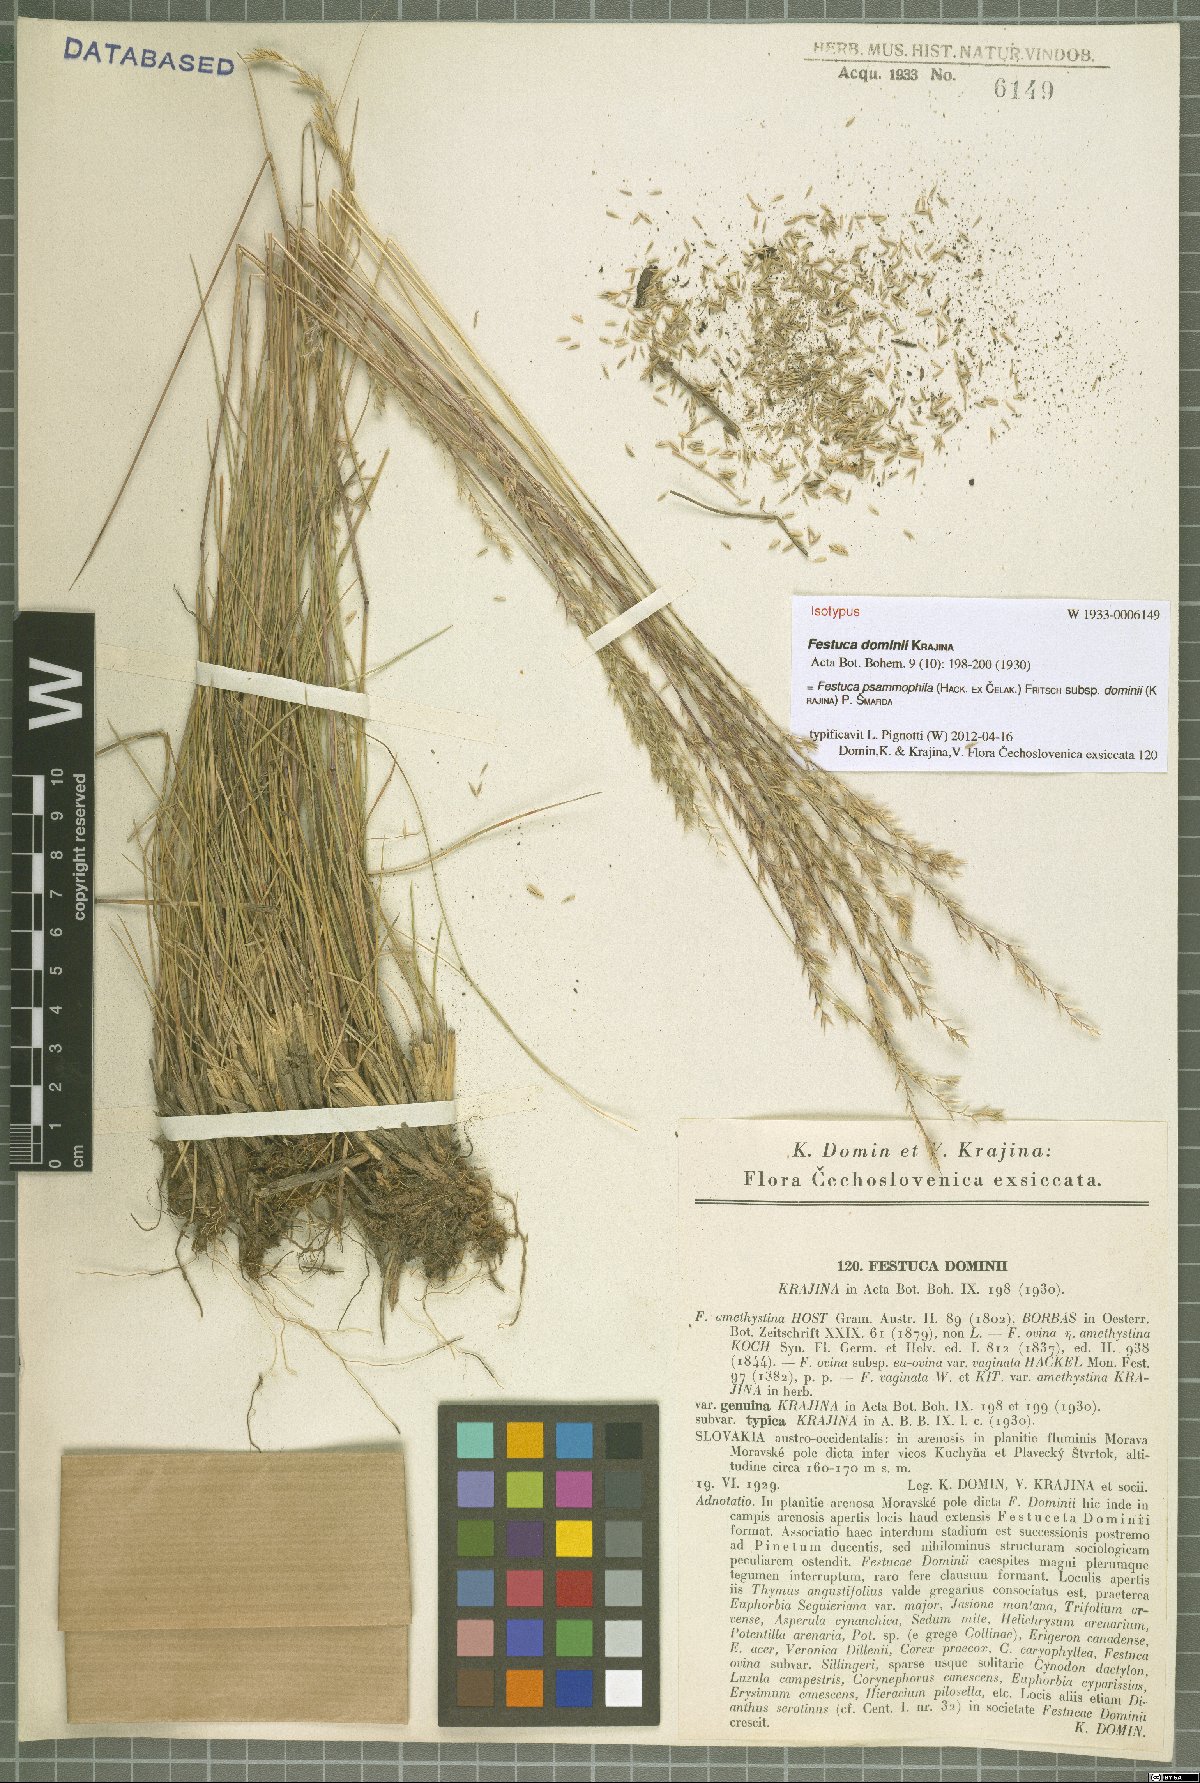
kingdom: Plantae
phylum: Tracheophyta
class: Liliopsida
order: Poales
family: Poaceae
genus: Festuca
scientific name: Festuca vaginata
